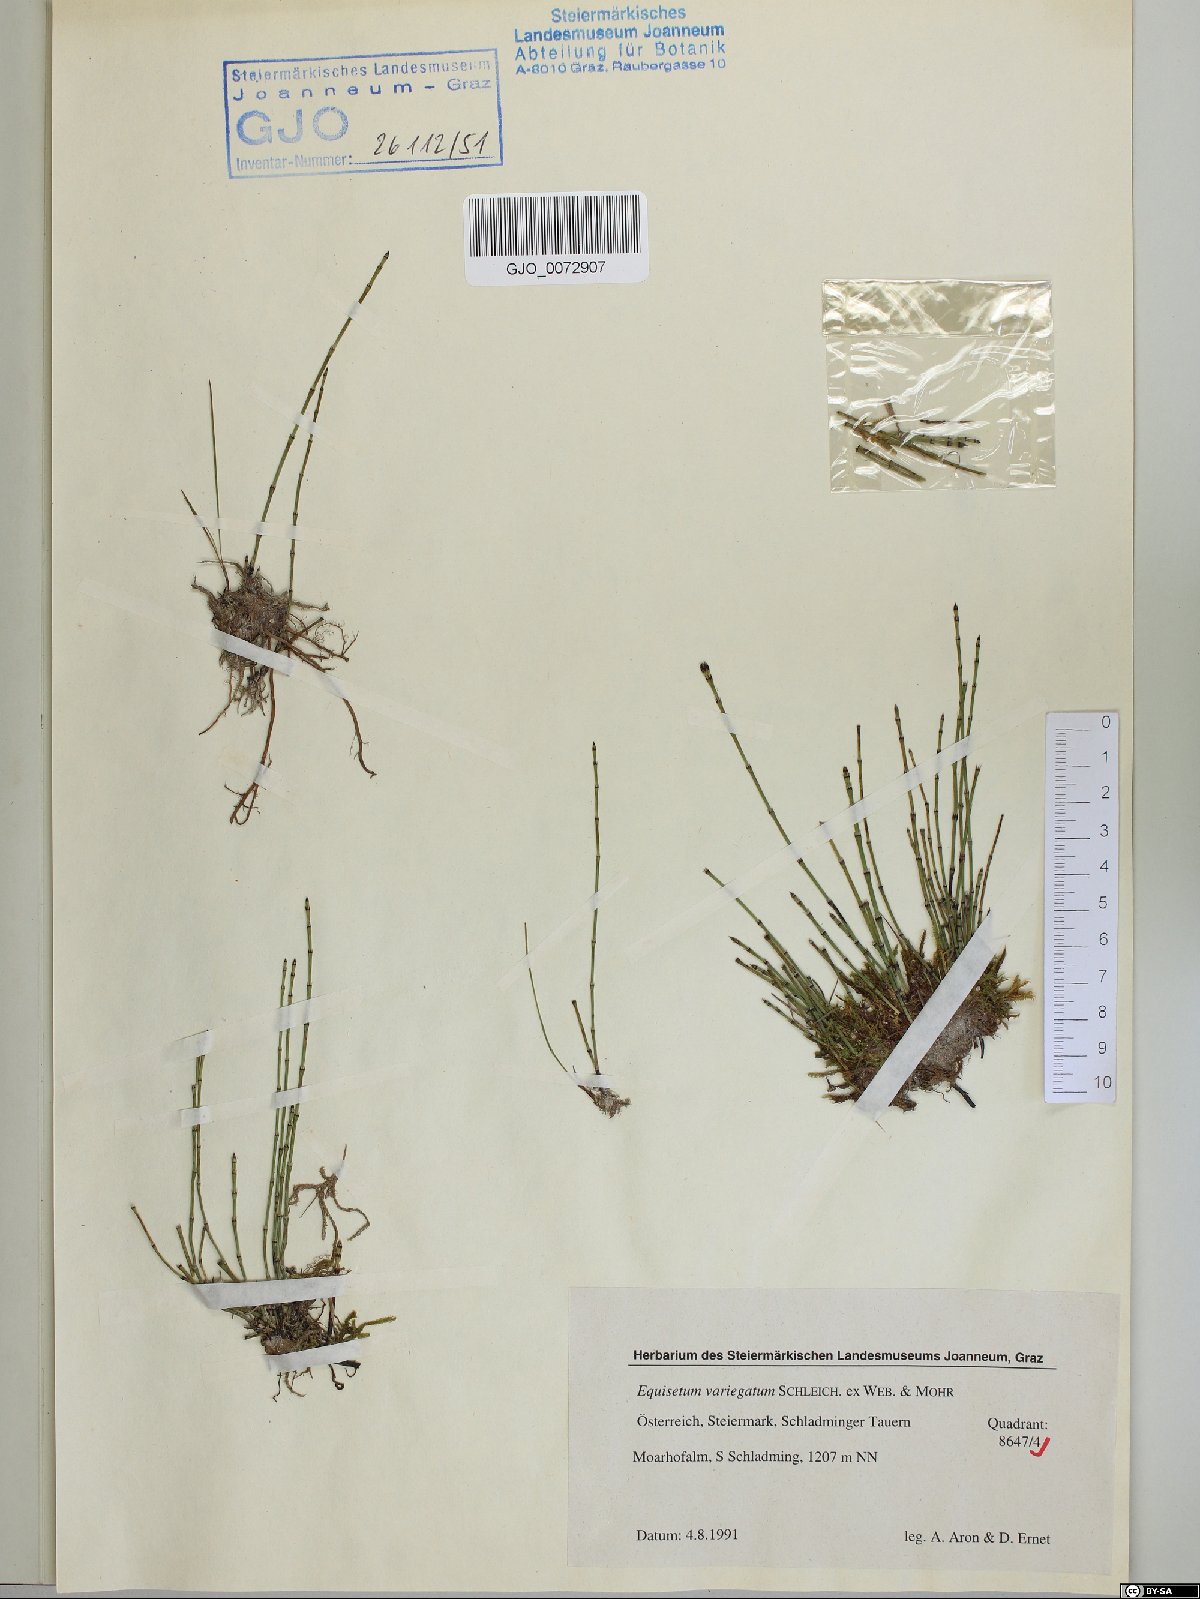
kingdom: Plantae
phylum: Tracheophyta
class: Polypodiopsida
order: Equisetales
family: Equisetaceae
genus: Equisetum
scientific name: Equisetum variegatum
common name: Variegated horsetail
